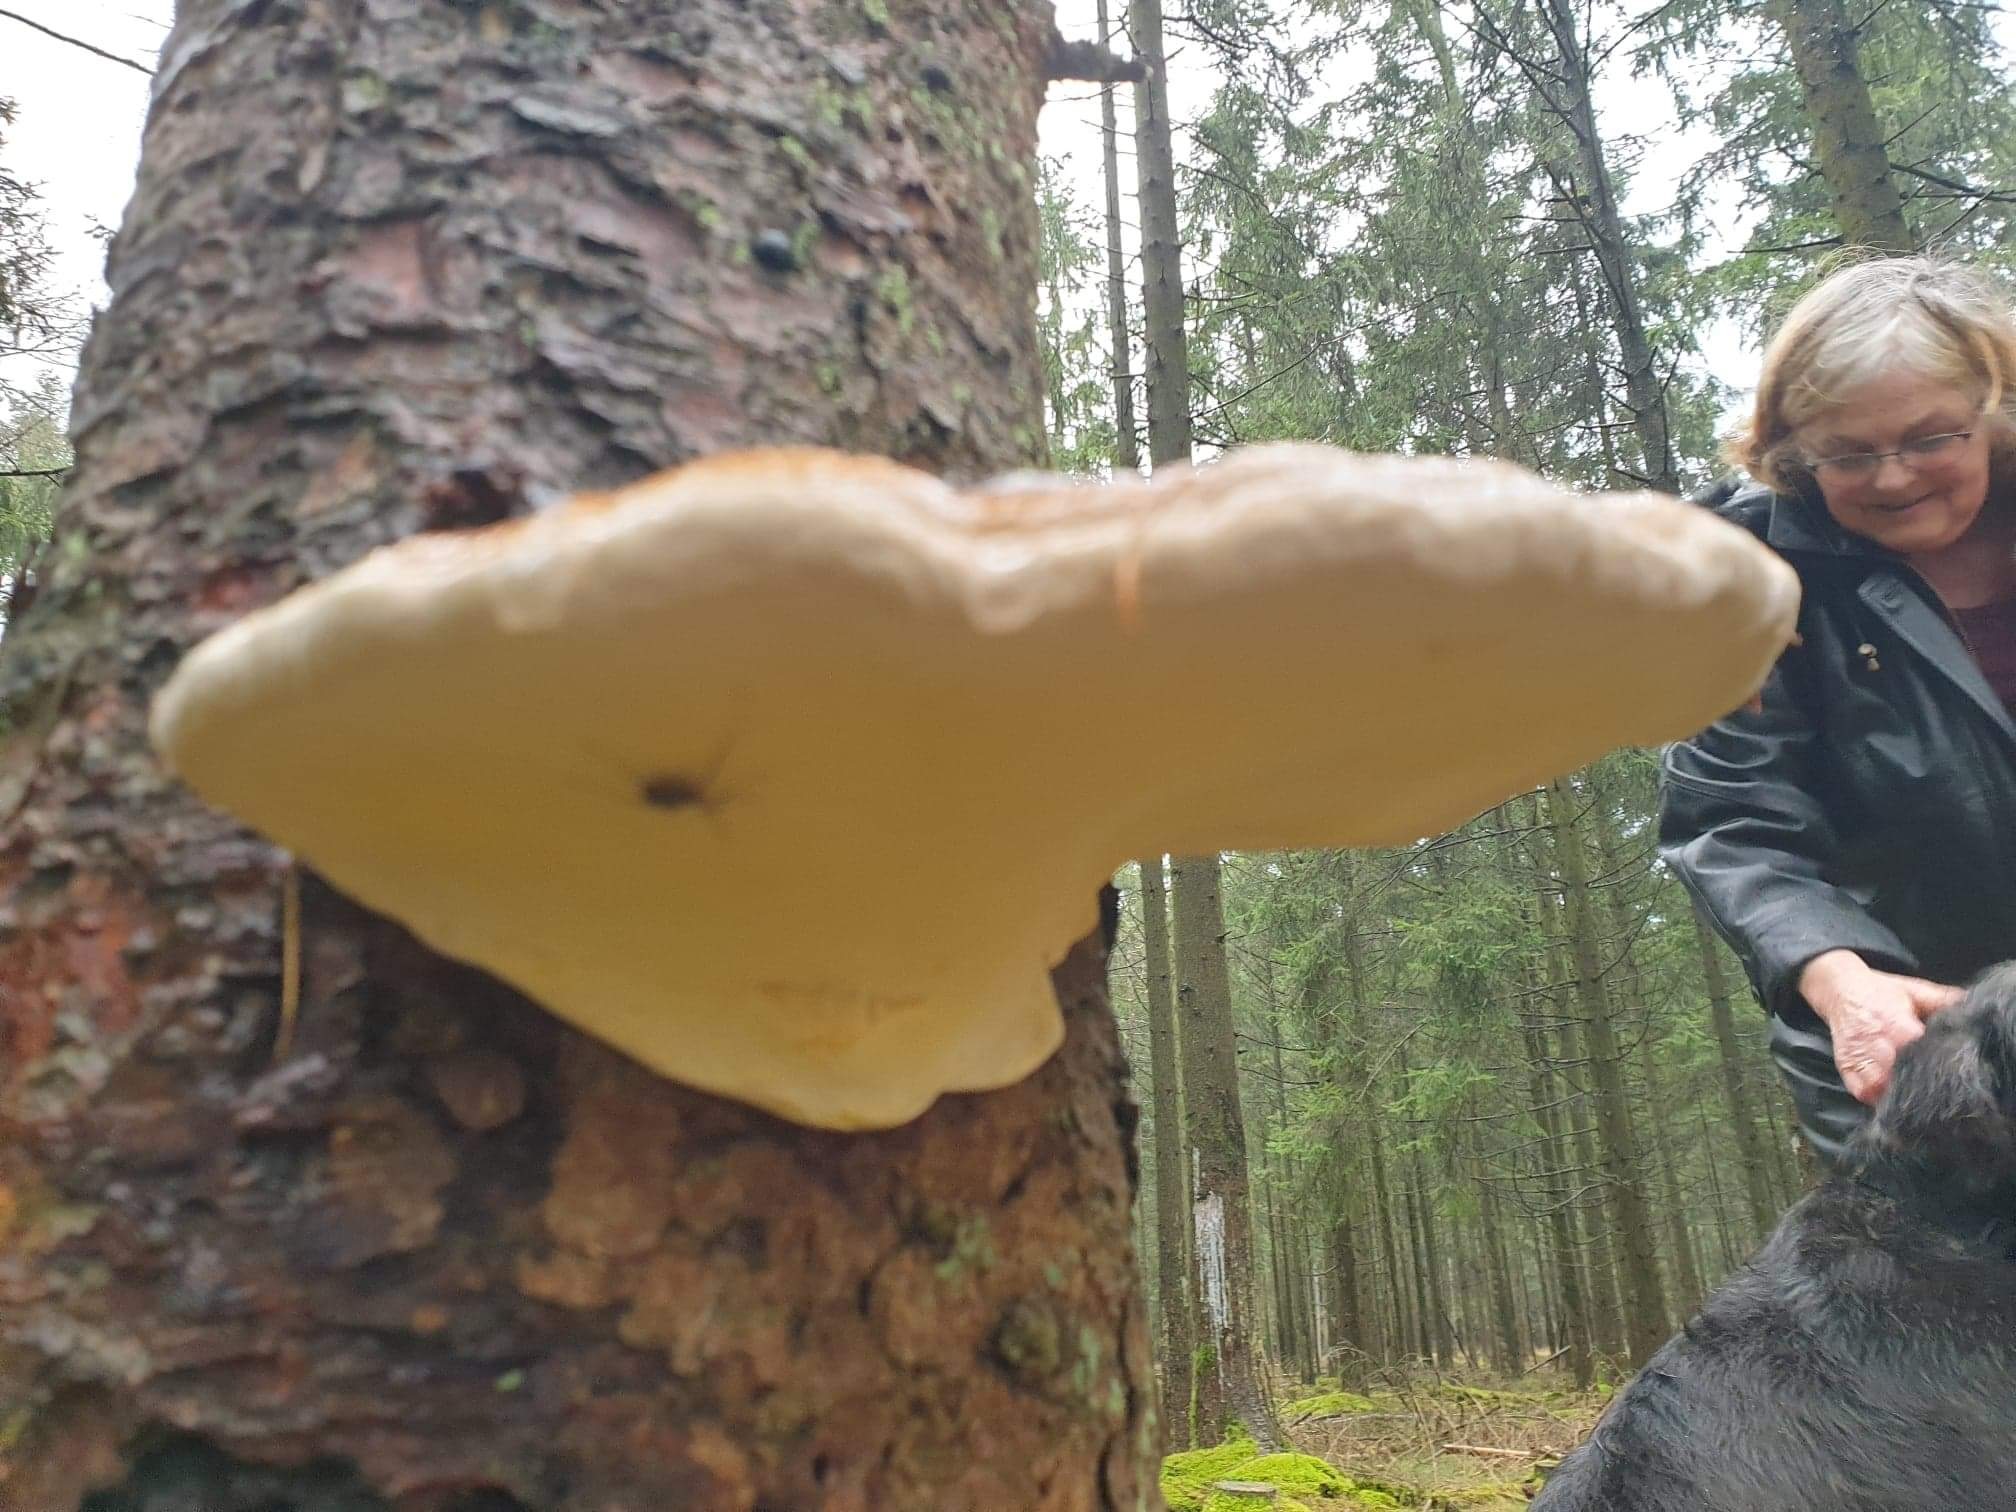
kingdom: Fungi
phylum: Basidiomycota
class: Agaricomycetes
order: Polyporales
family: Fomitopsidaceae
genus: Fomitopsis
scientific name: Fomitopsis pinicola
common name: randbæltet hovporesvamp
